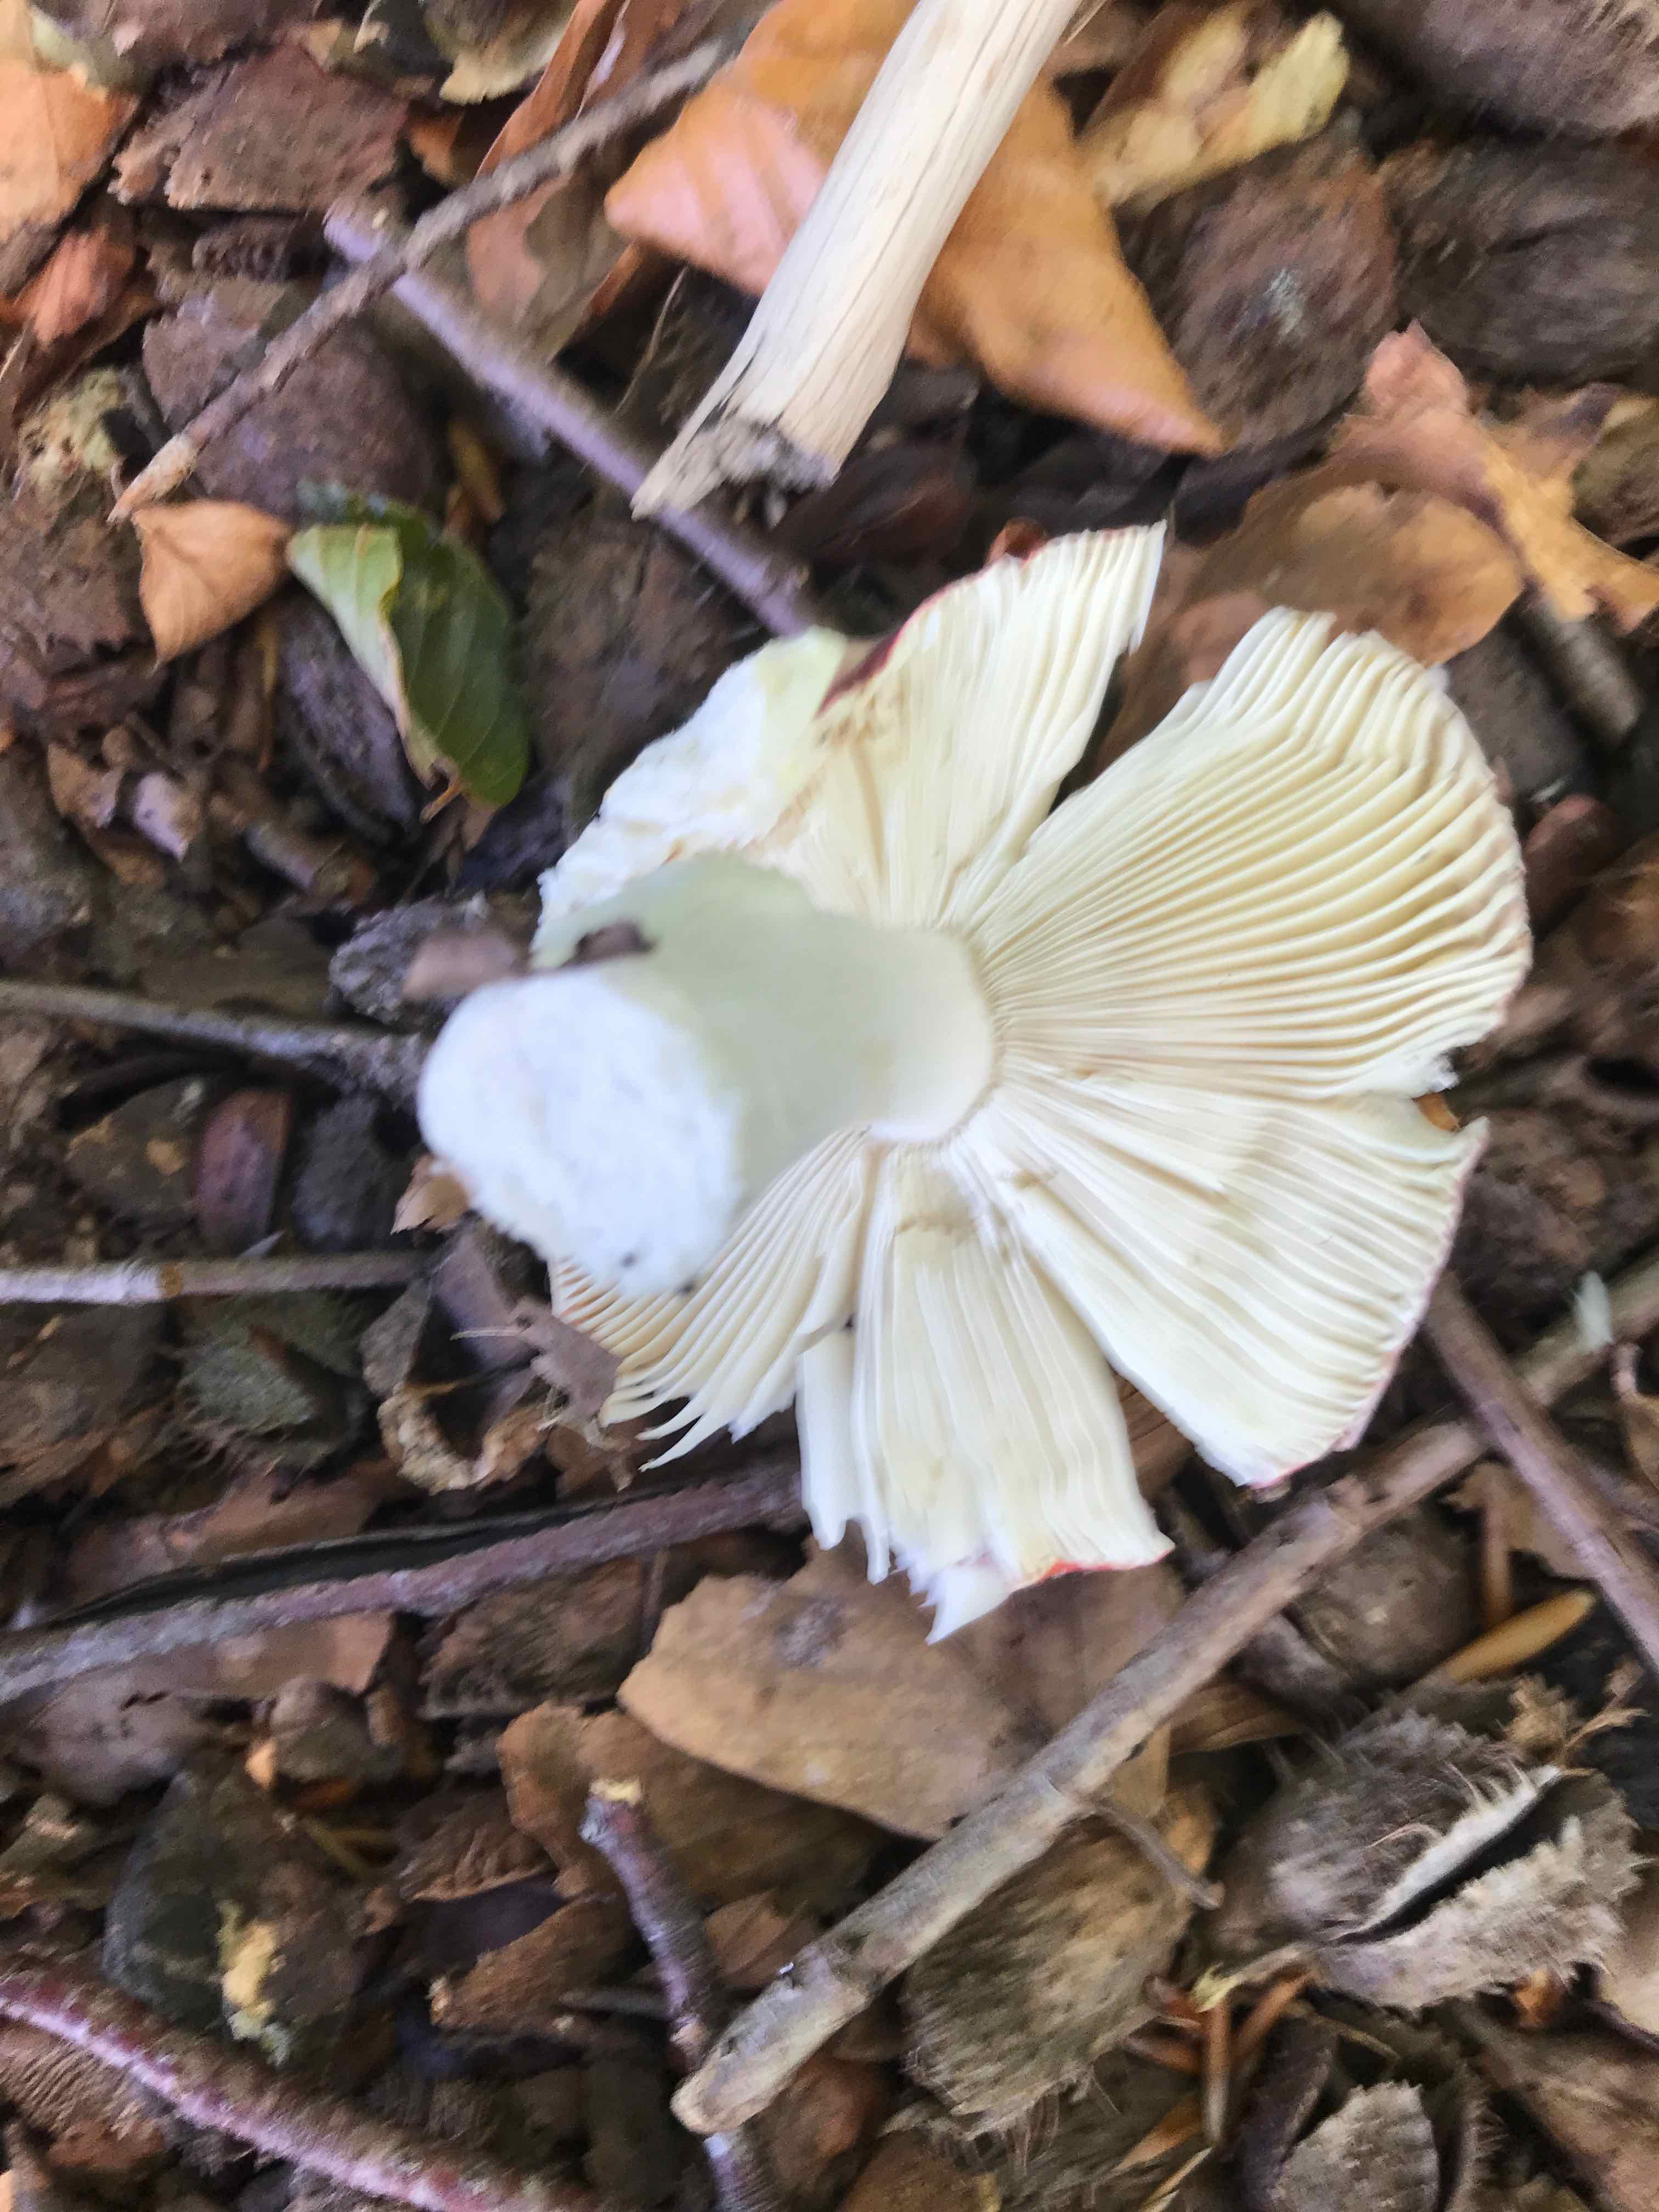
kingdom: Fungi
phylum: Basidiomycota
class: Agaricomycetes
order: Russulales
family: Russulaceae
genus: Russula
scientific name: Russula atropurpurea
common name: purpurbroget skørhat
